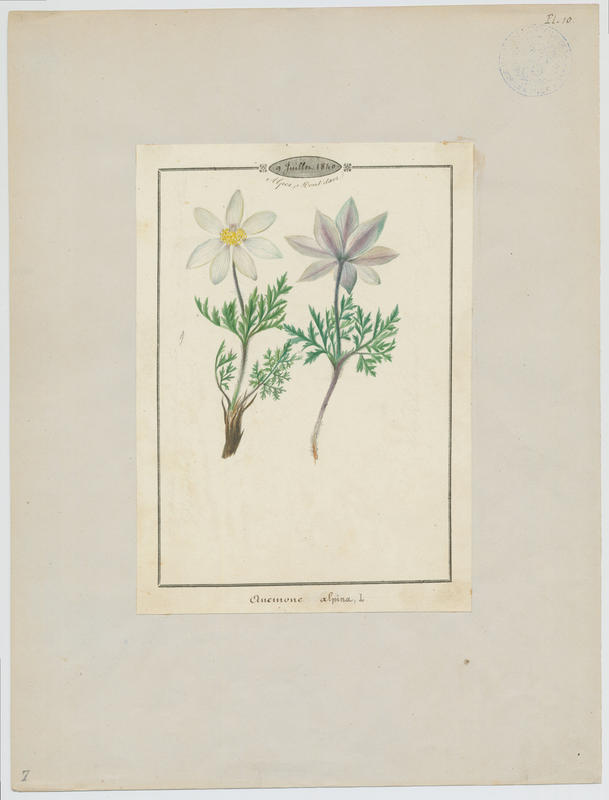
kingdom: Plantae
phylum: Tracheophyta
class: Magnoliopsida
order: Ranunculales
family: Ranunculaceae
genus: Pulsatilla
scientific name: Pulsatilla alpina
